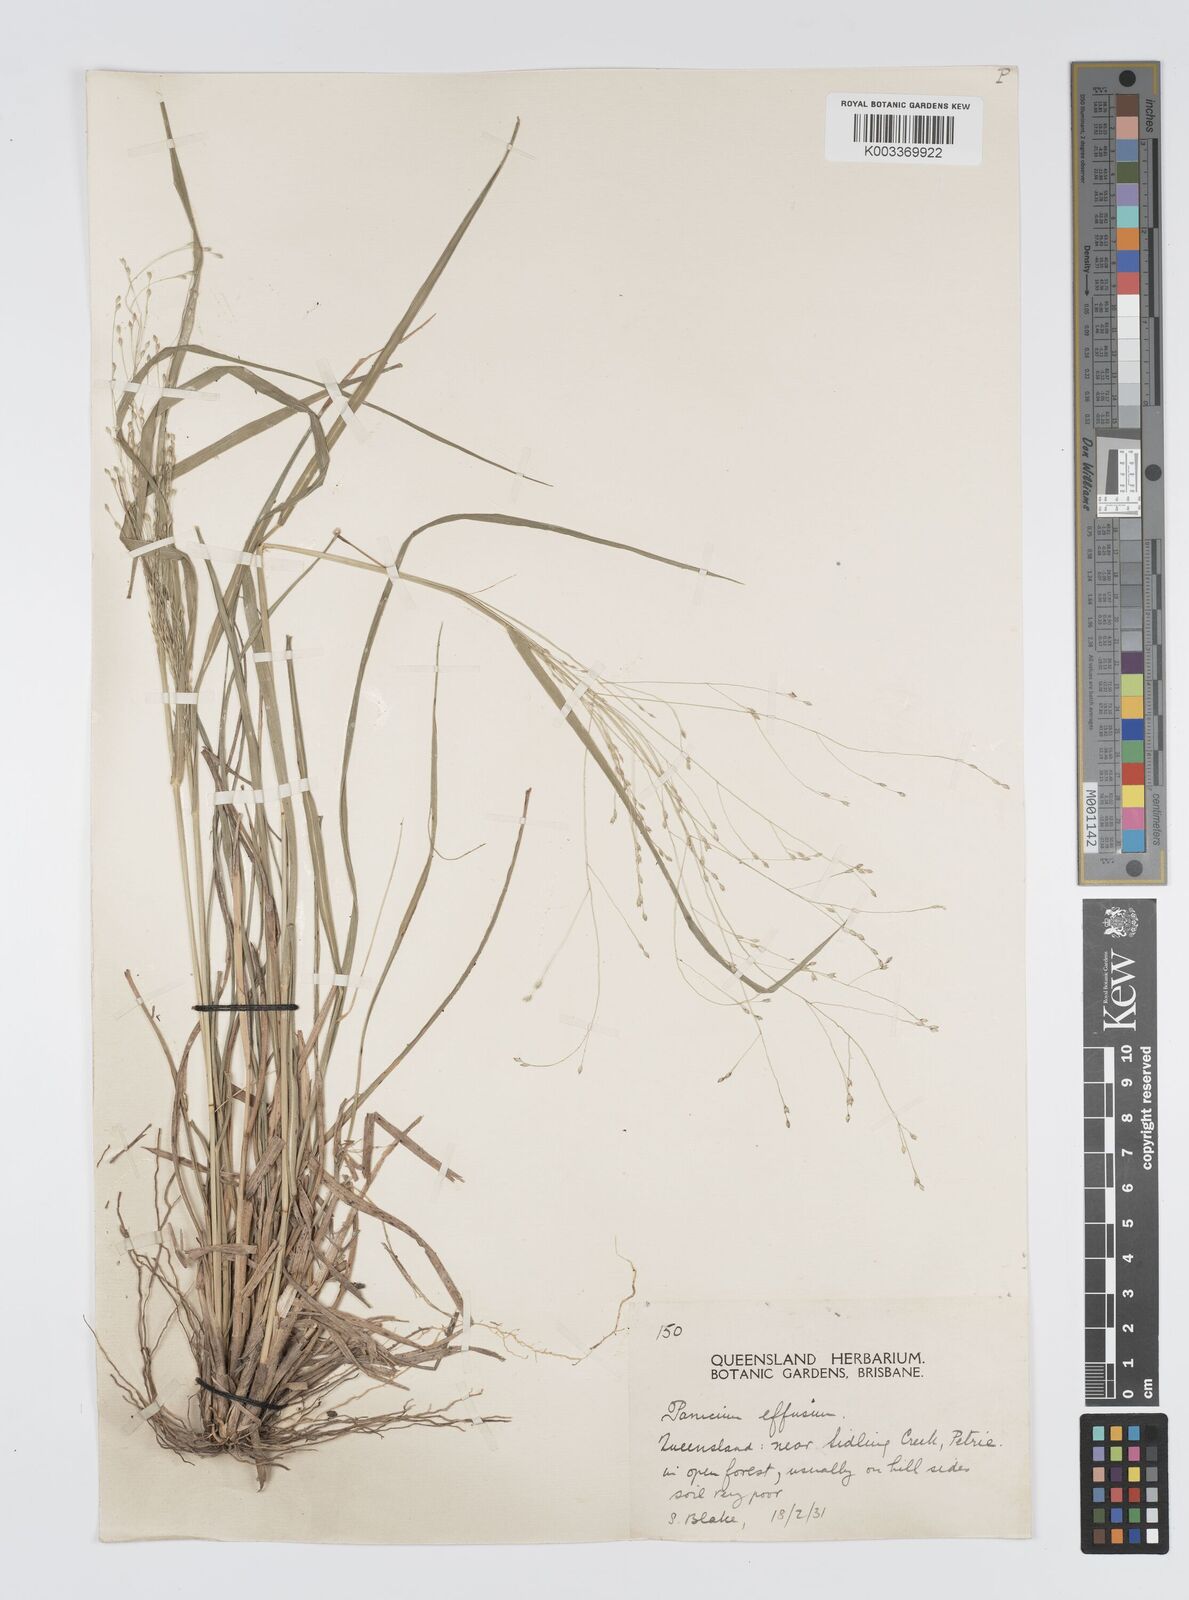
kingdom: Plantae
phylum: Tracheophyta
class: Liliopsida
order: Poales
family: Poaceae
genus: Panicum
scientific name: Panicum effusum
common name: Hairy panic grass
